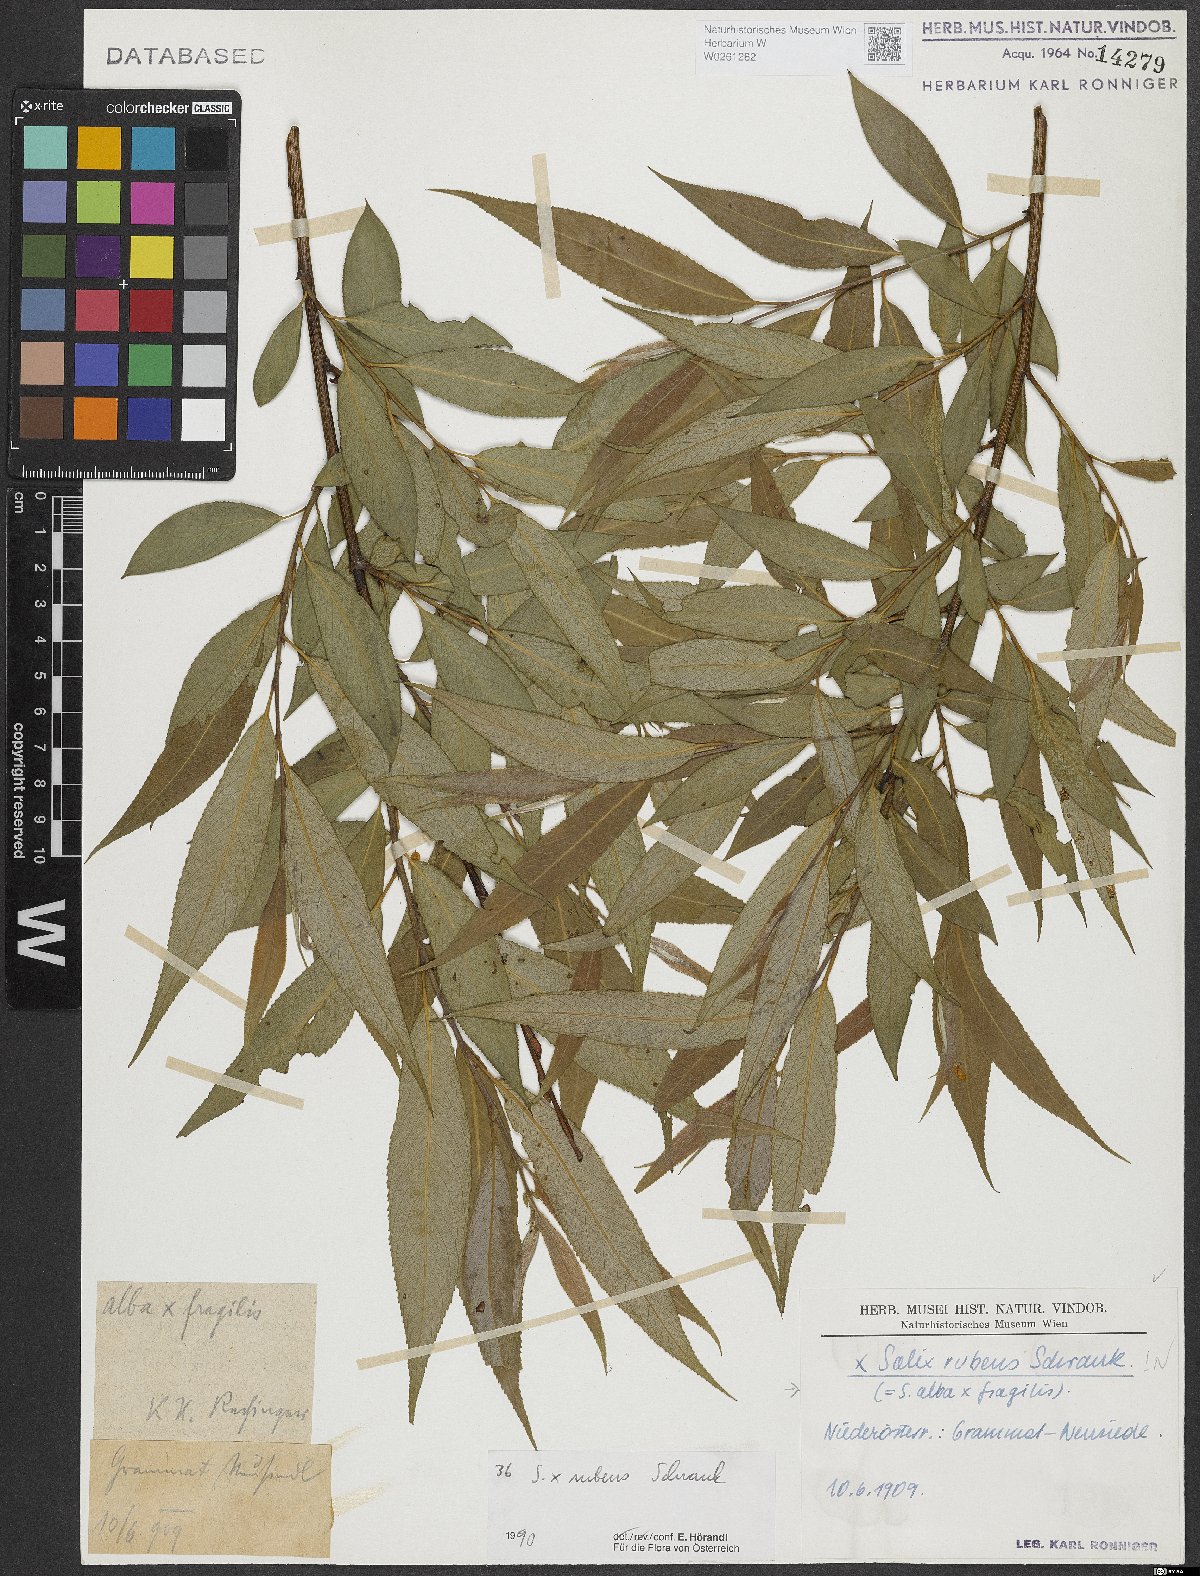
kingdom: Plantae
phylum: Tracheophyta
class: Magnoliopsida
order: Malpighiales
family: Salicaceae
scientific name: Salicaceae
